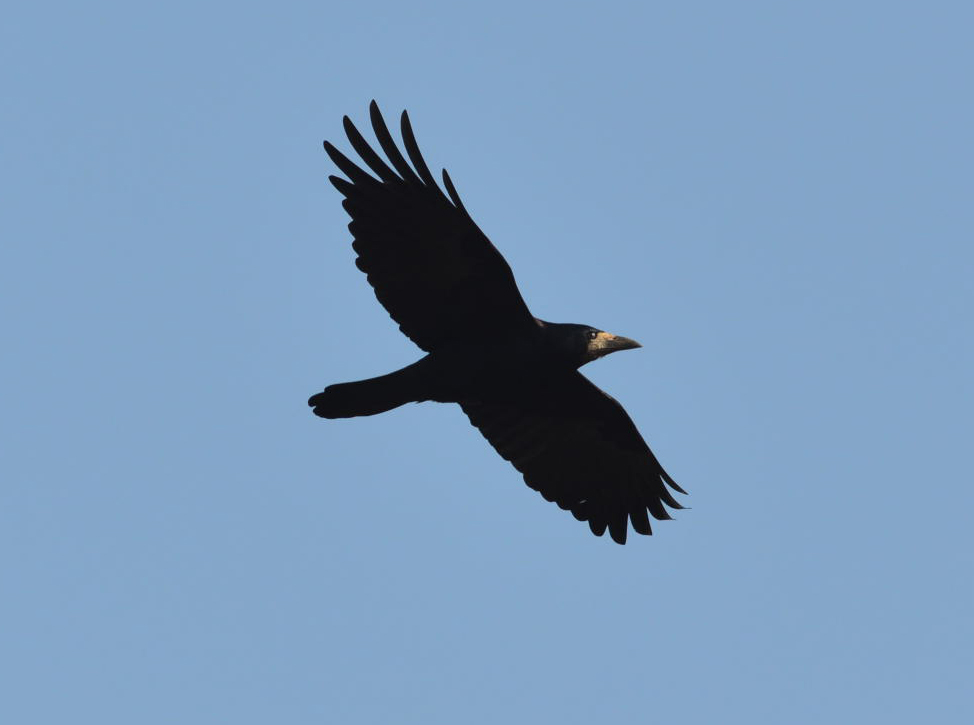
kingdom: Animalia
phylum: Chordata
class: Aves
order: Passeriformes
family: Corvidae
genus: Corvus
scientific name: Corvus frugilegus
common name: Rook
